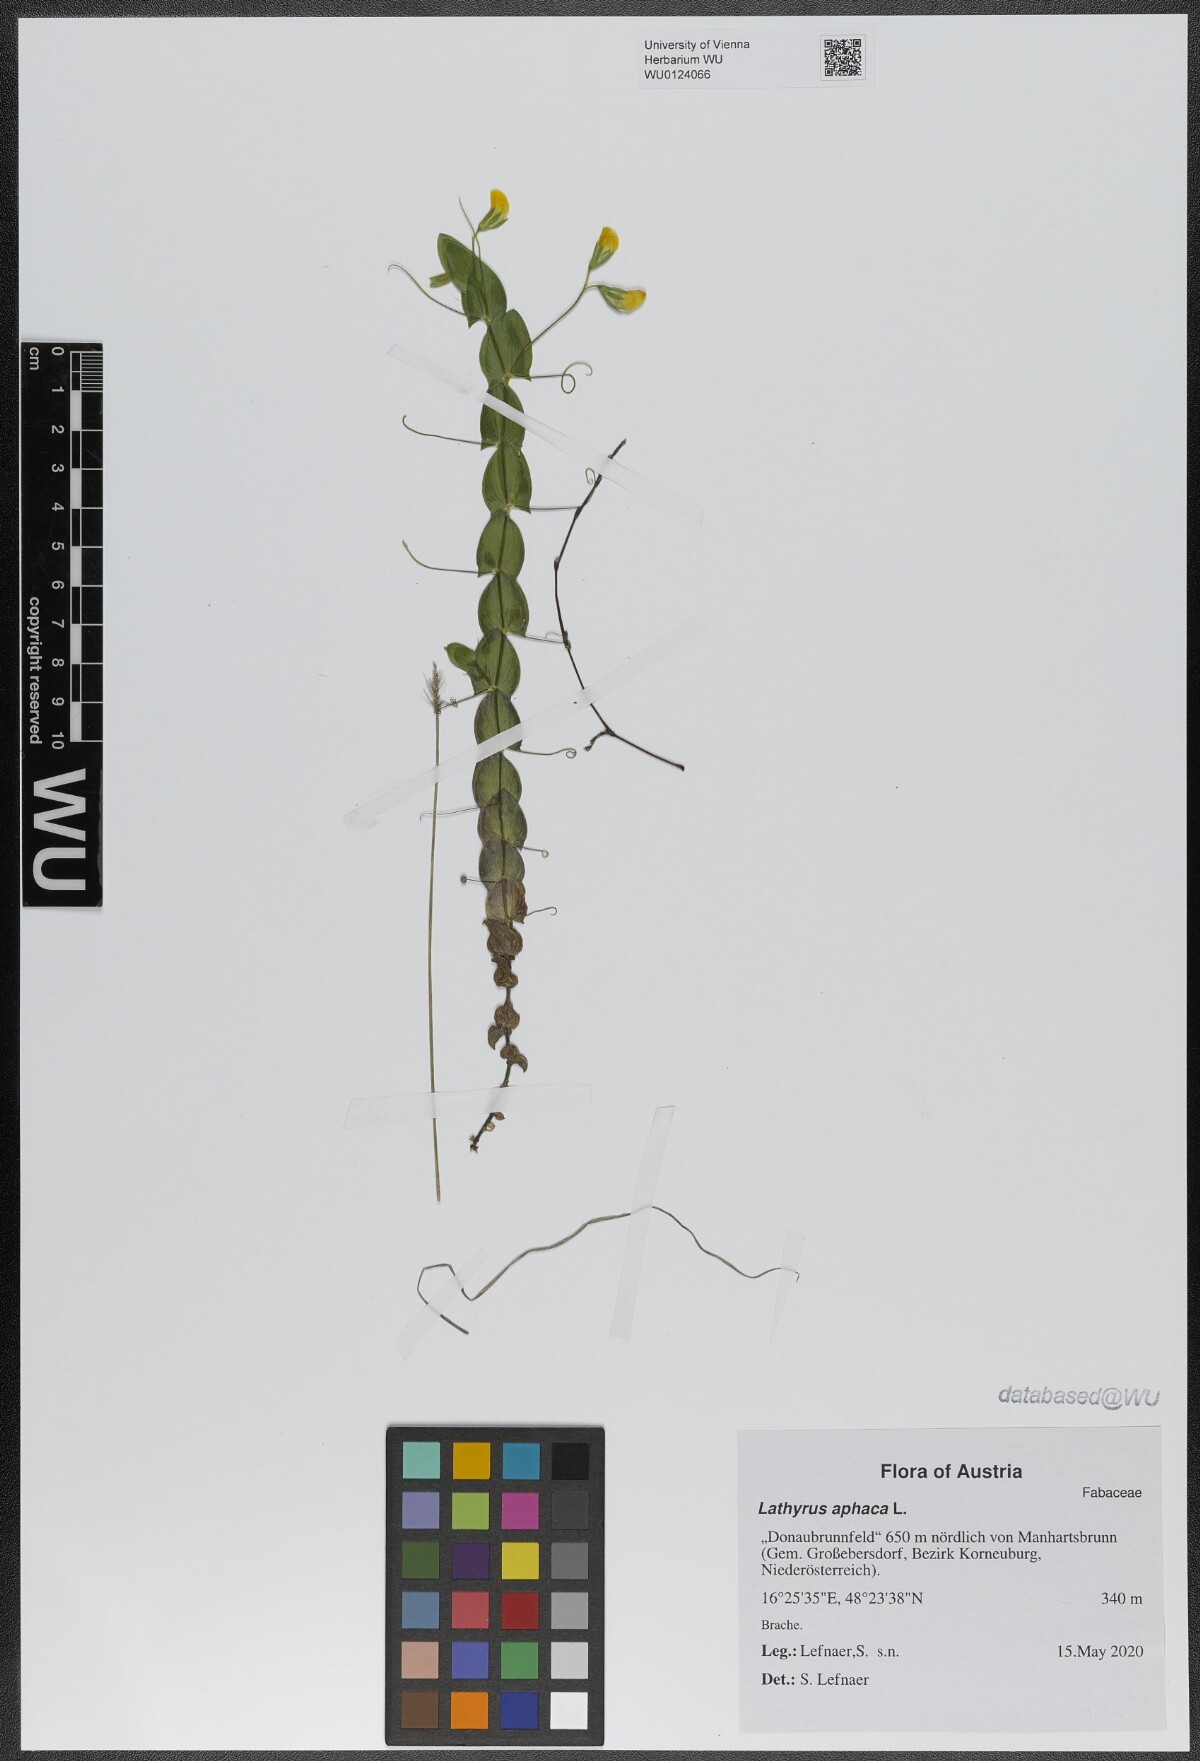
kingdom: Plantae
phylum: Tracheophyta
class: Magnoliopsida
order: Fabales
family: Fabaceae
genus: Lathyrus
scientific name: Lathyrus aphaca
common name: Yellow vetchling
